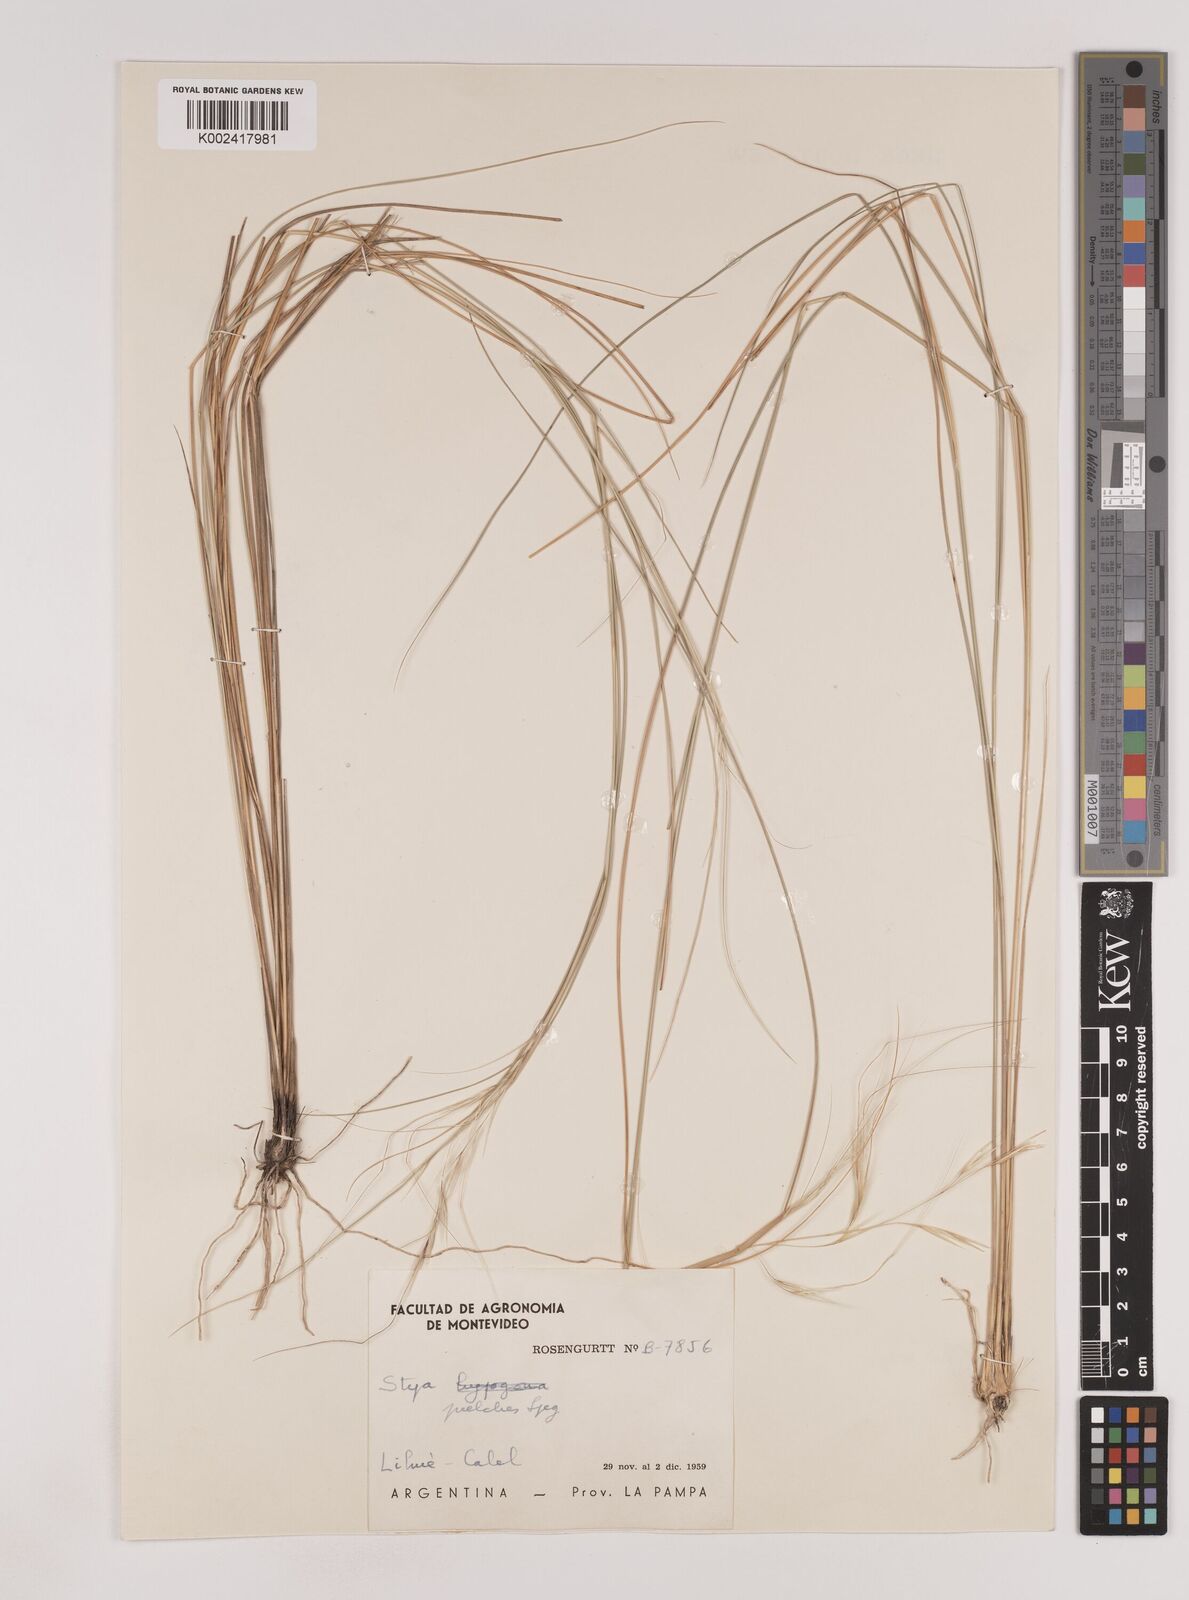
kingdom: Plantae
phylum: Tracheophyta
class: Liliopsida
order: Poales
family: Poaceae
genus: Nassella
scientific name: Nassella tenuis
